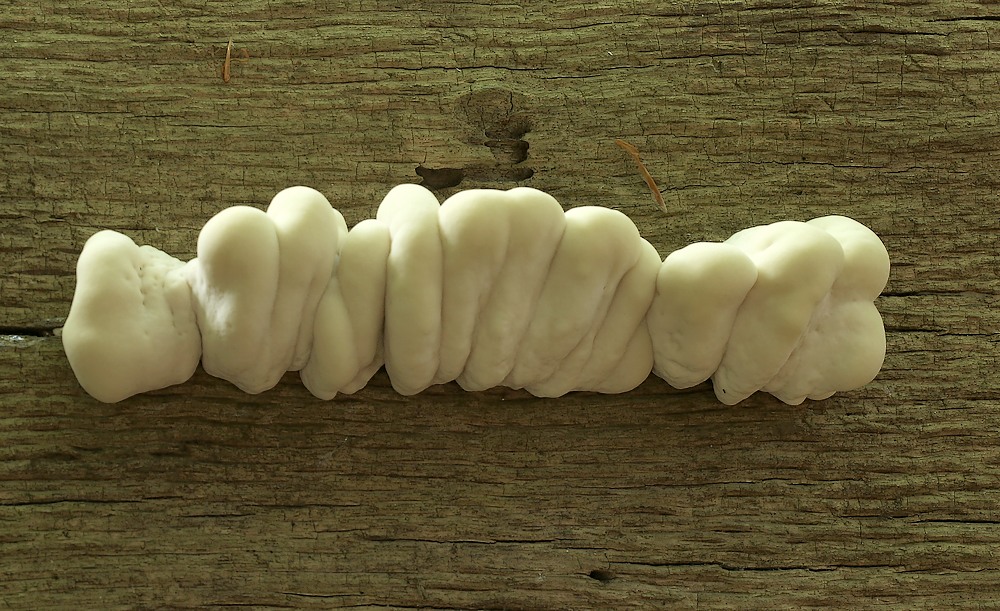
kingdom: Fungi
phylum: Basidiomycota
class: Agaricomycetes
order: Polyporales
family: Laetiporaceae
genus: Laetiporus
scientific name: Laetiporus sulphureus
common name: svovlporesvamp
